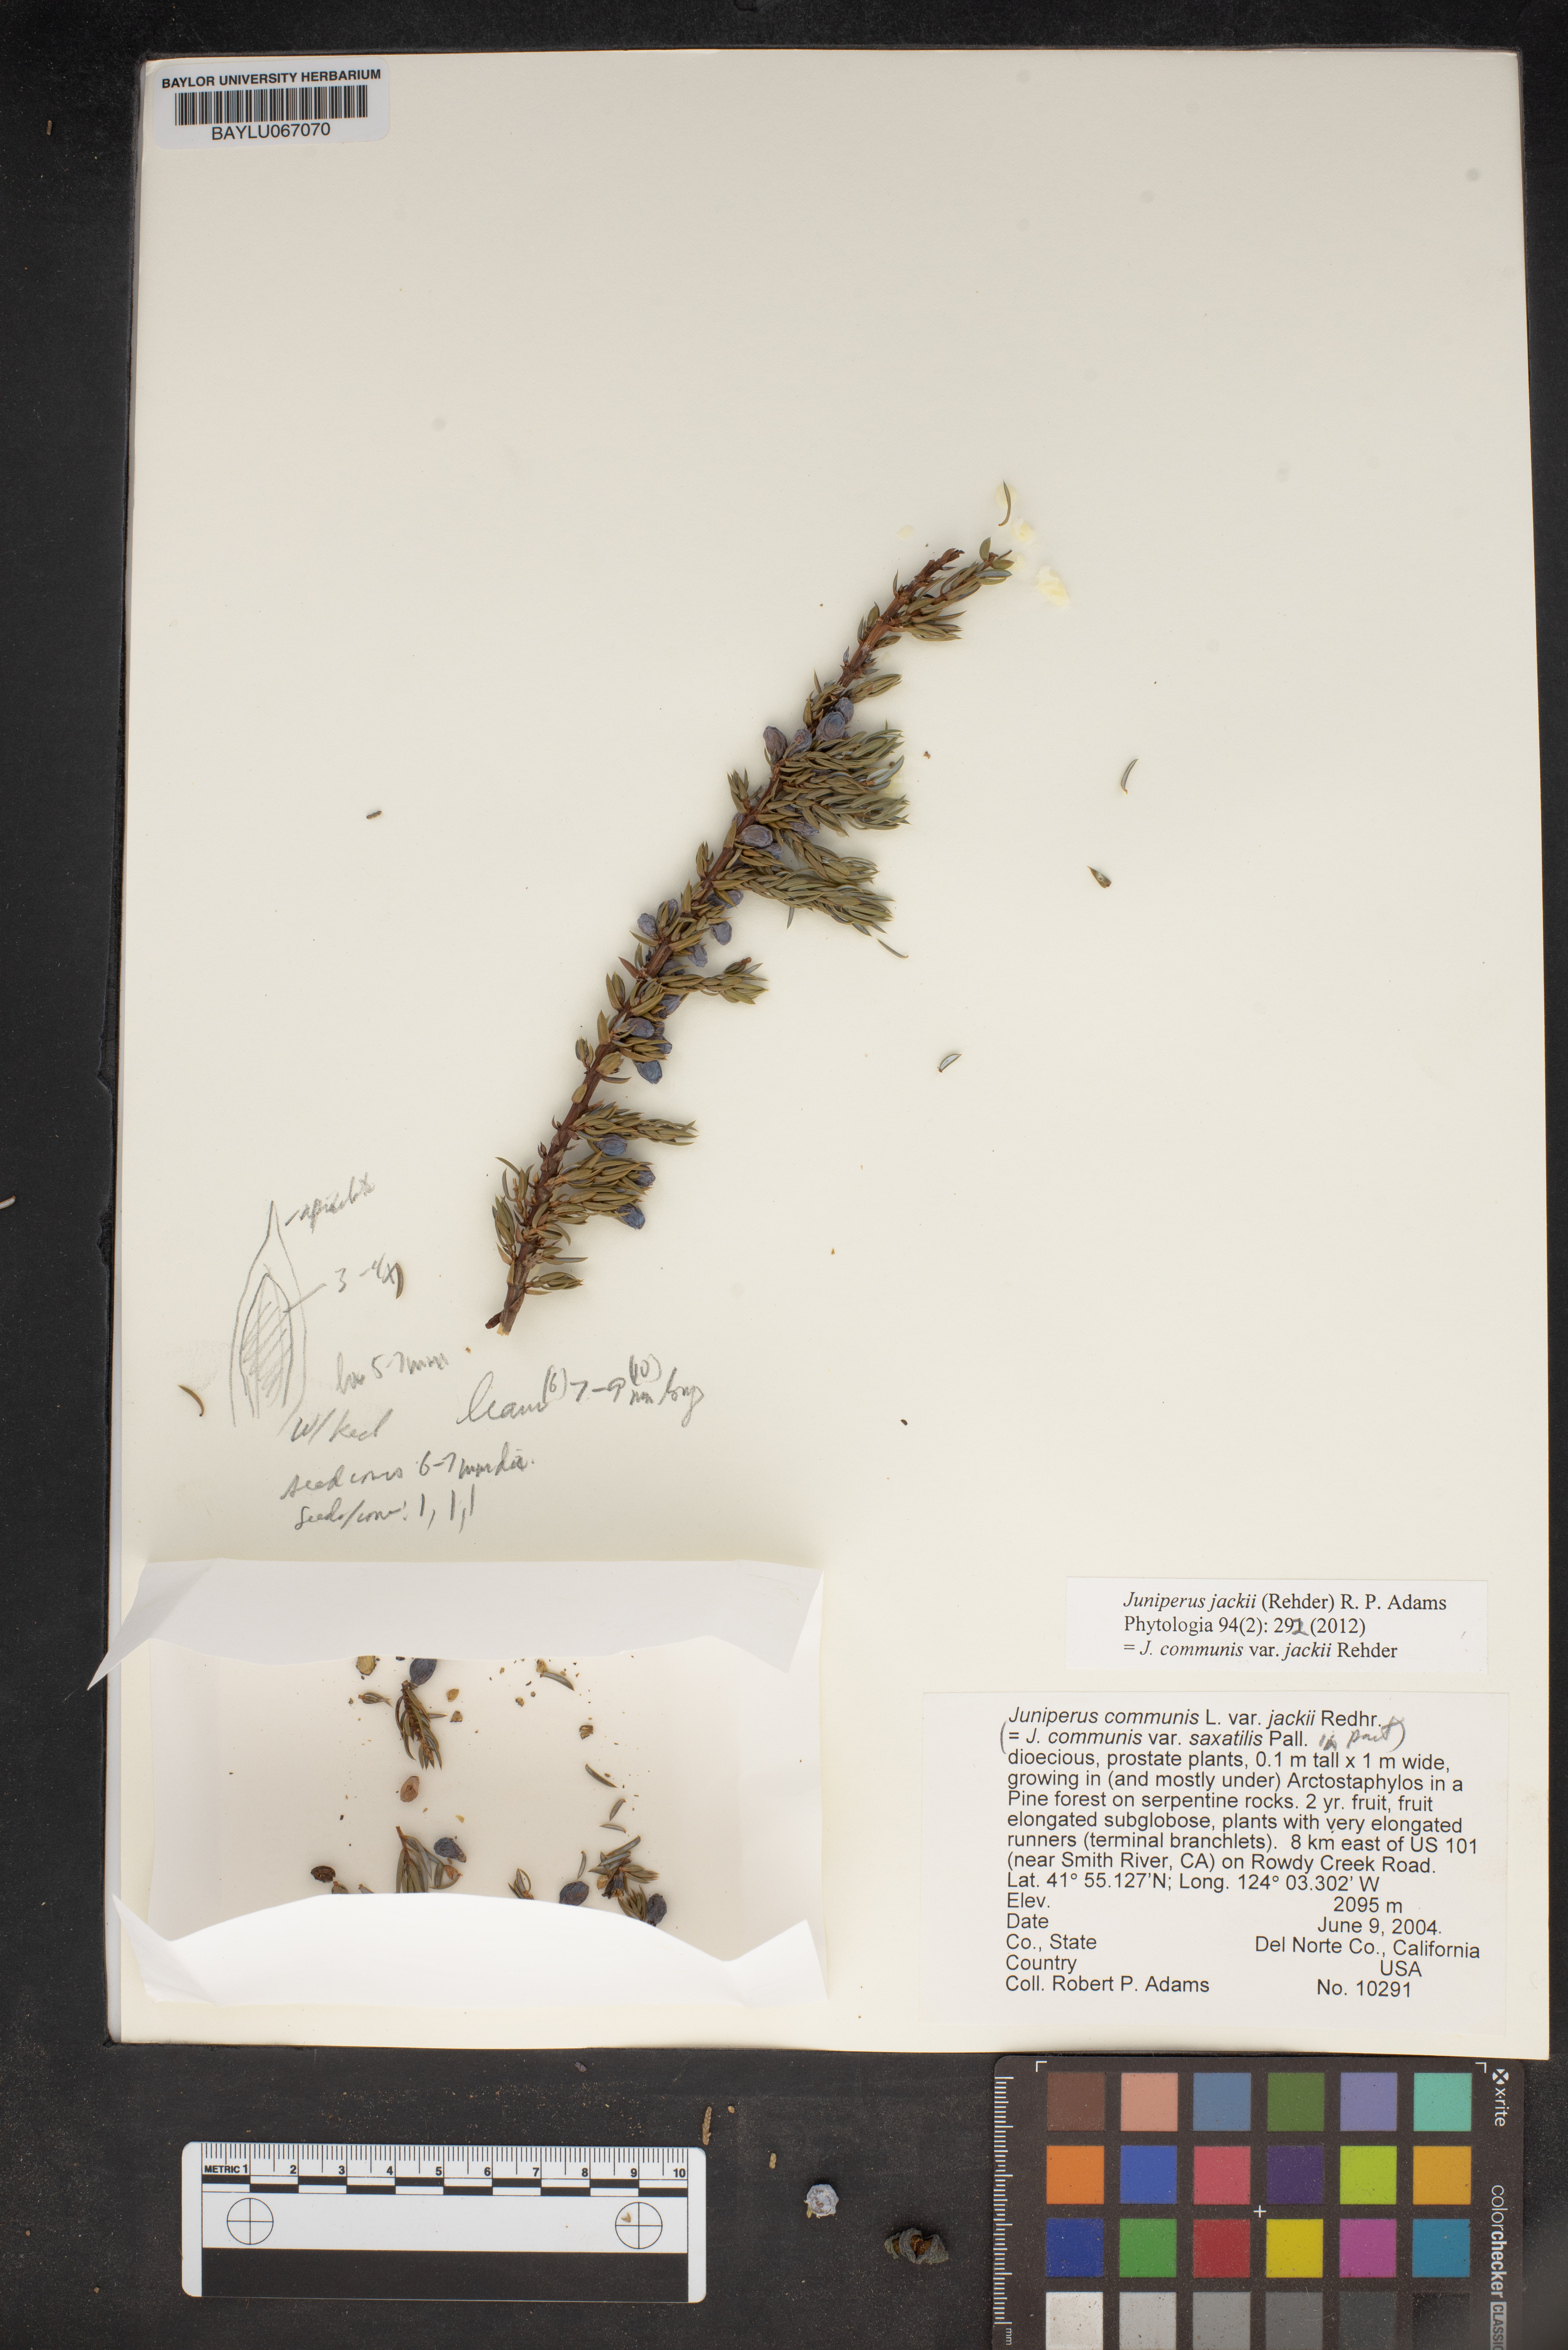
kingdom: Plantae
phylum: Tracheophyta
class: Pinopsida
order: Pinales
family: Cupressaceae
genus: Juniperus
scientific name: Juniperus communis
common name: Common juniper
